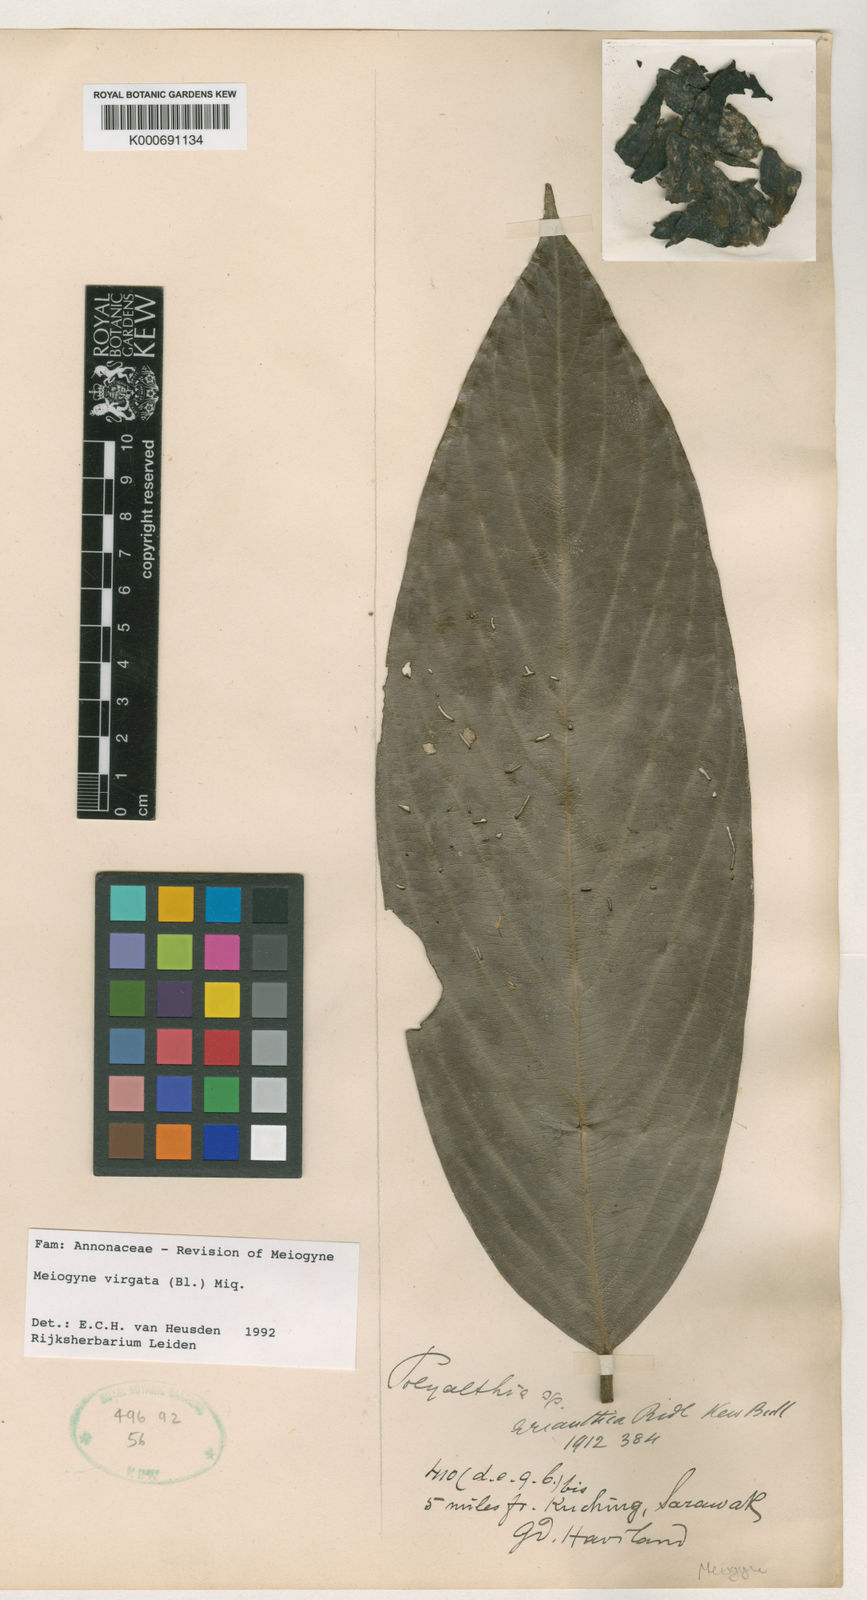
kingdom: Plantae
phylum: Tracheophyta
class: Magnoliopsida
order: Magnoliales
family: Annonaceae
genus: Meiogyne
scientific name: Meiogyne virgata
